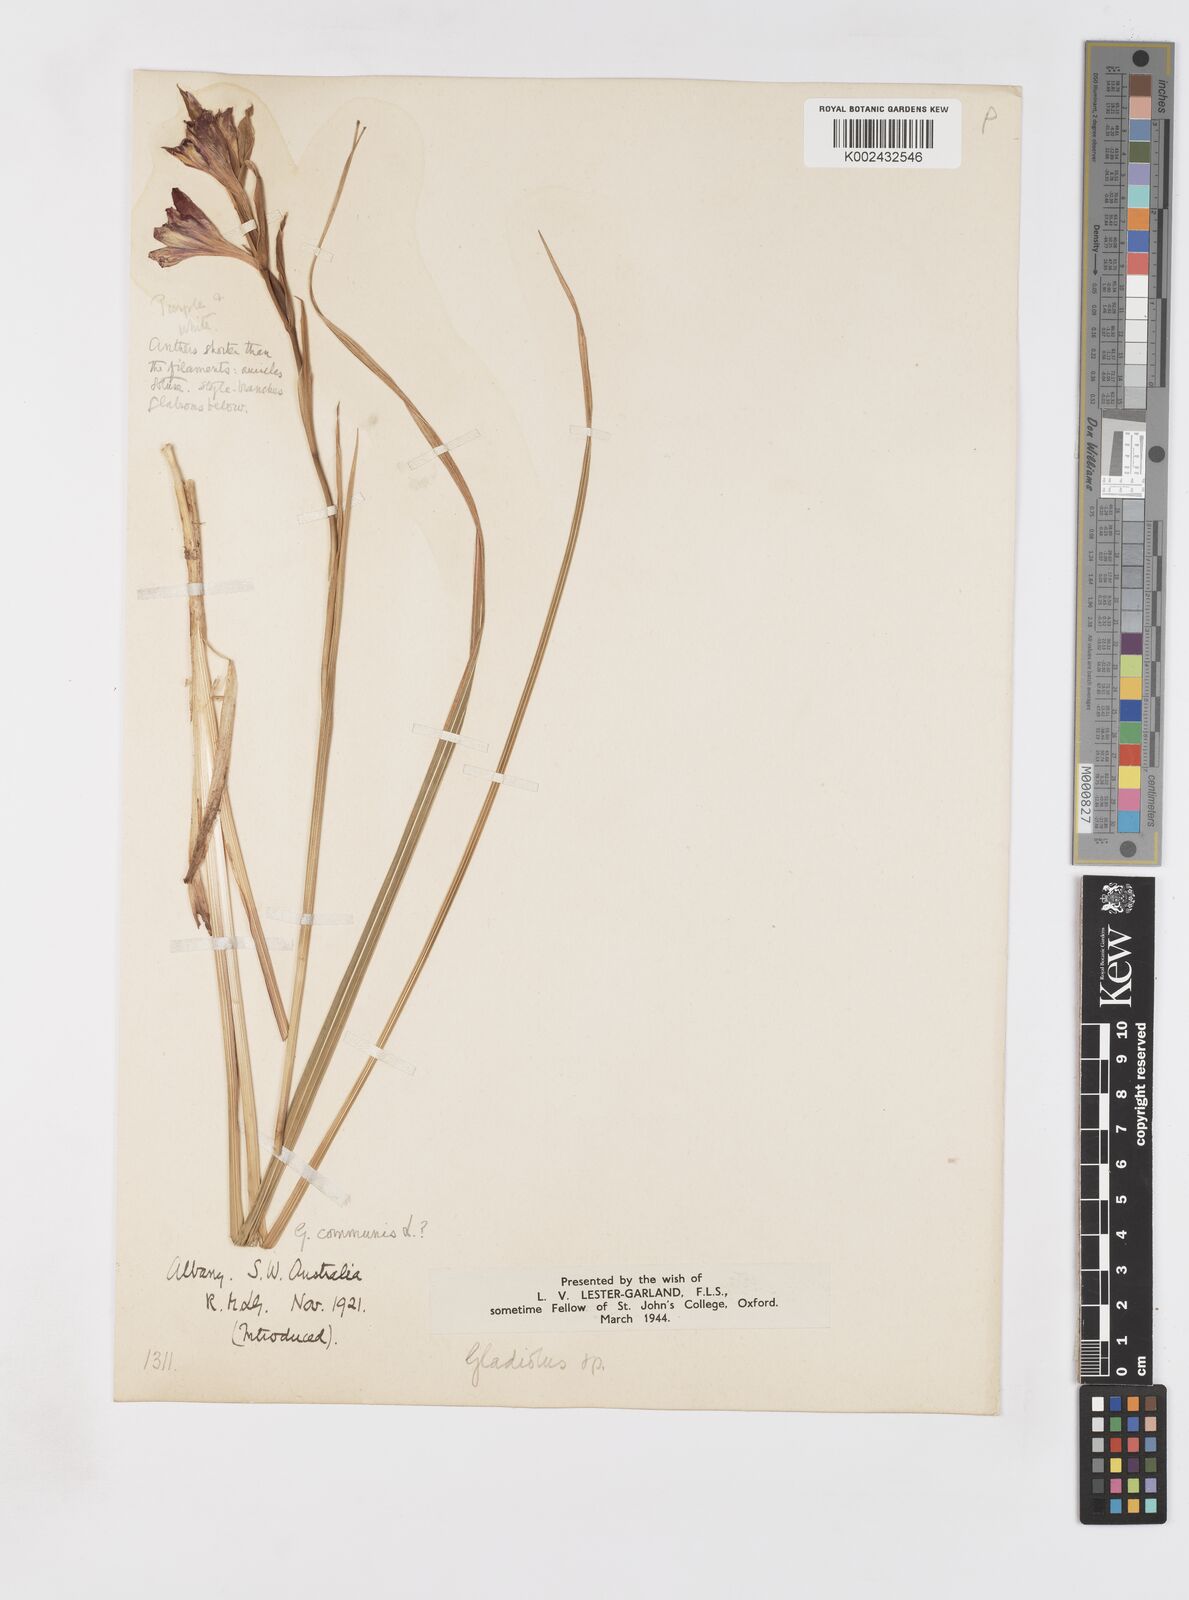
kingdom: Plantae
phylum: Tracheophyta
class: Liliopsida
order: Asparagales
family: Iridaceae
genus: Gladiolus
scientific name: Gladiolus communis
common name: Eastern gladiolus
